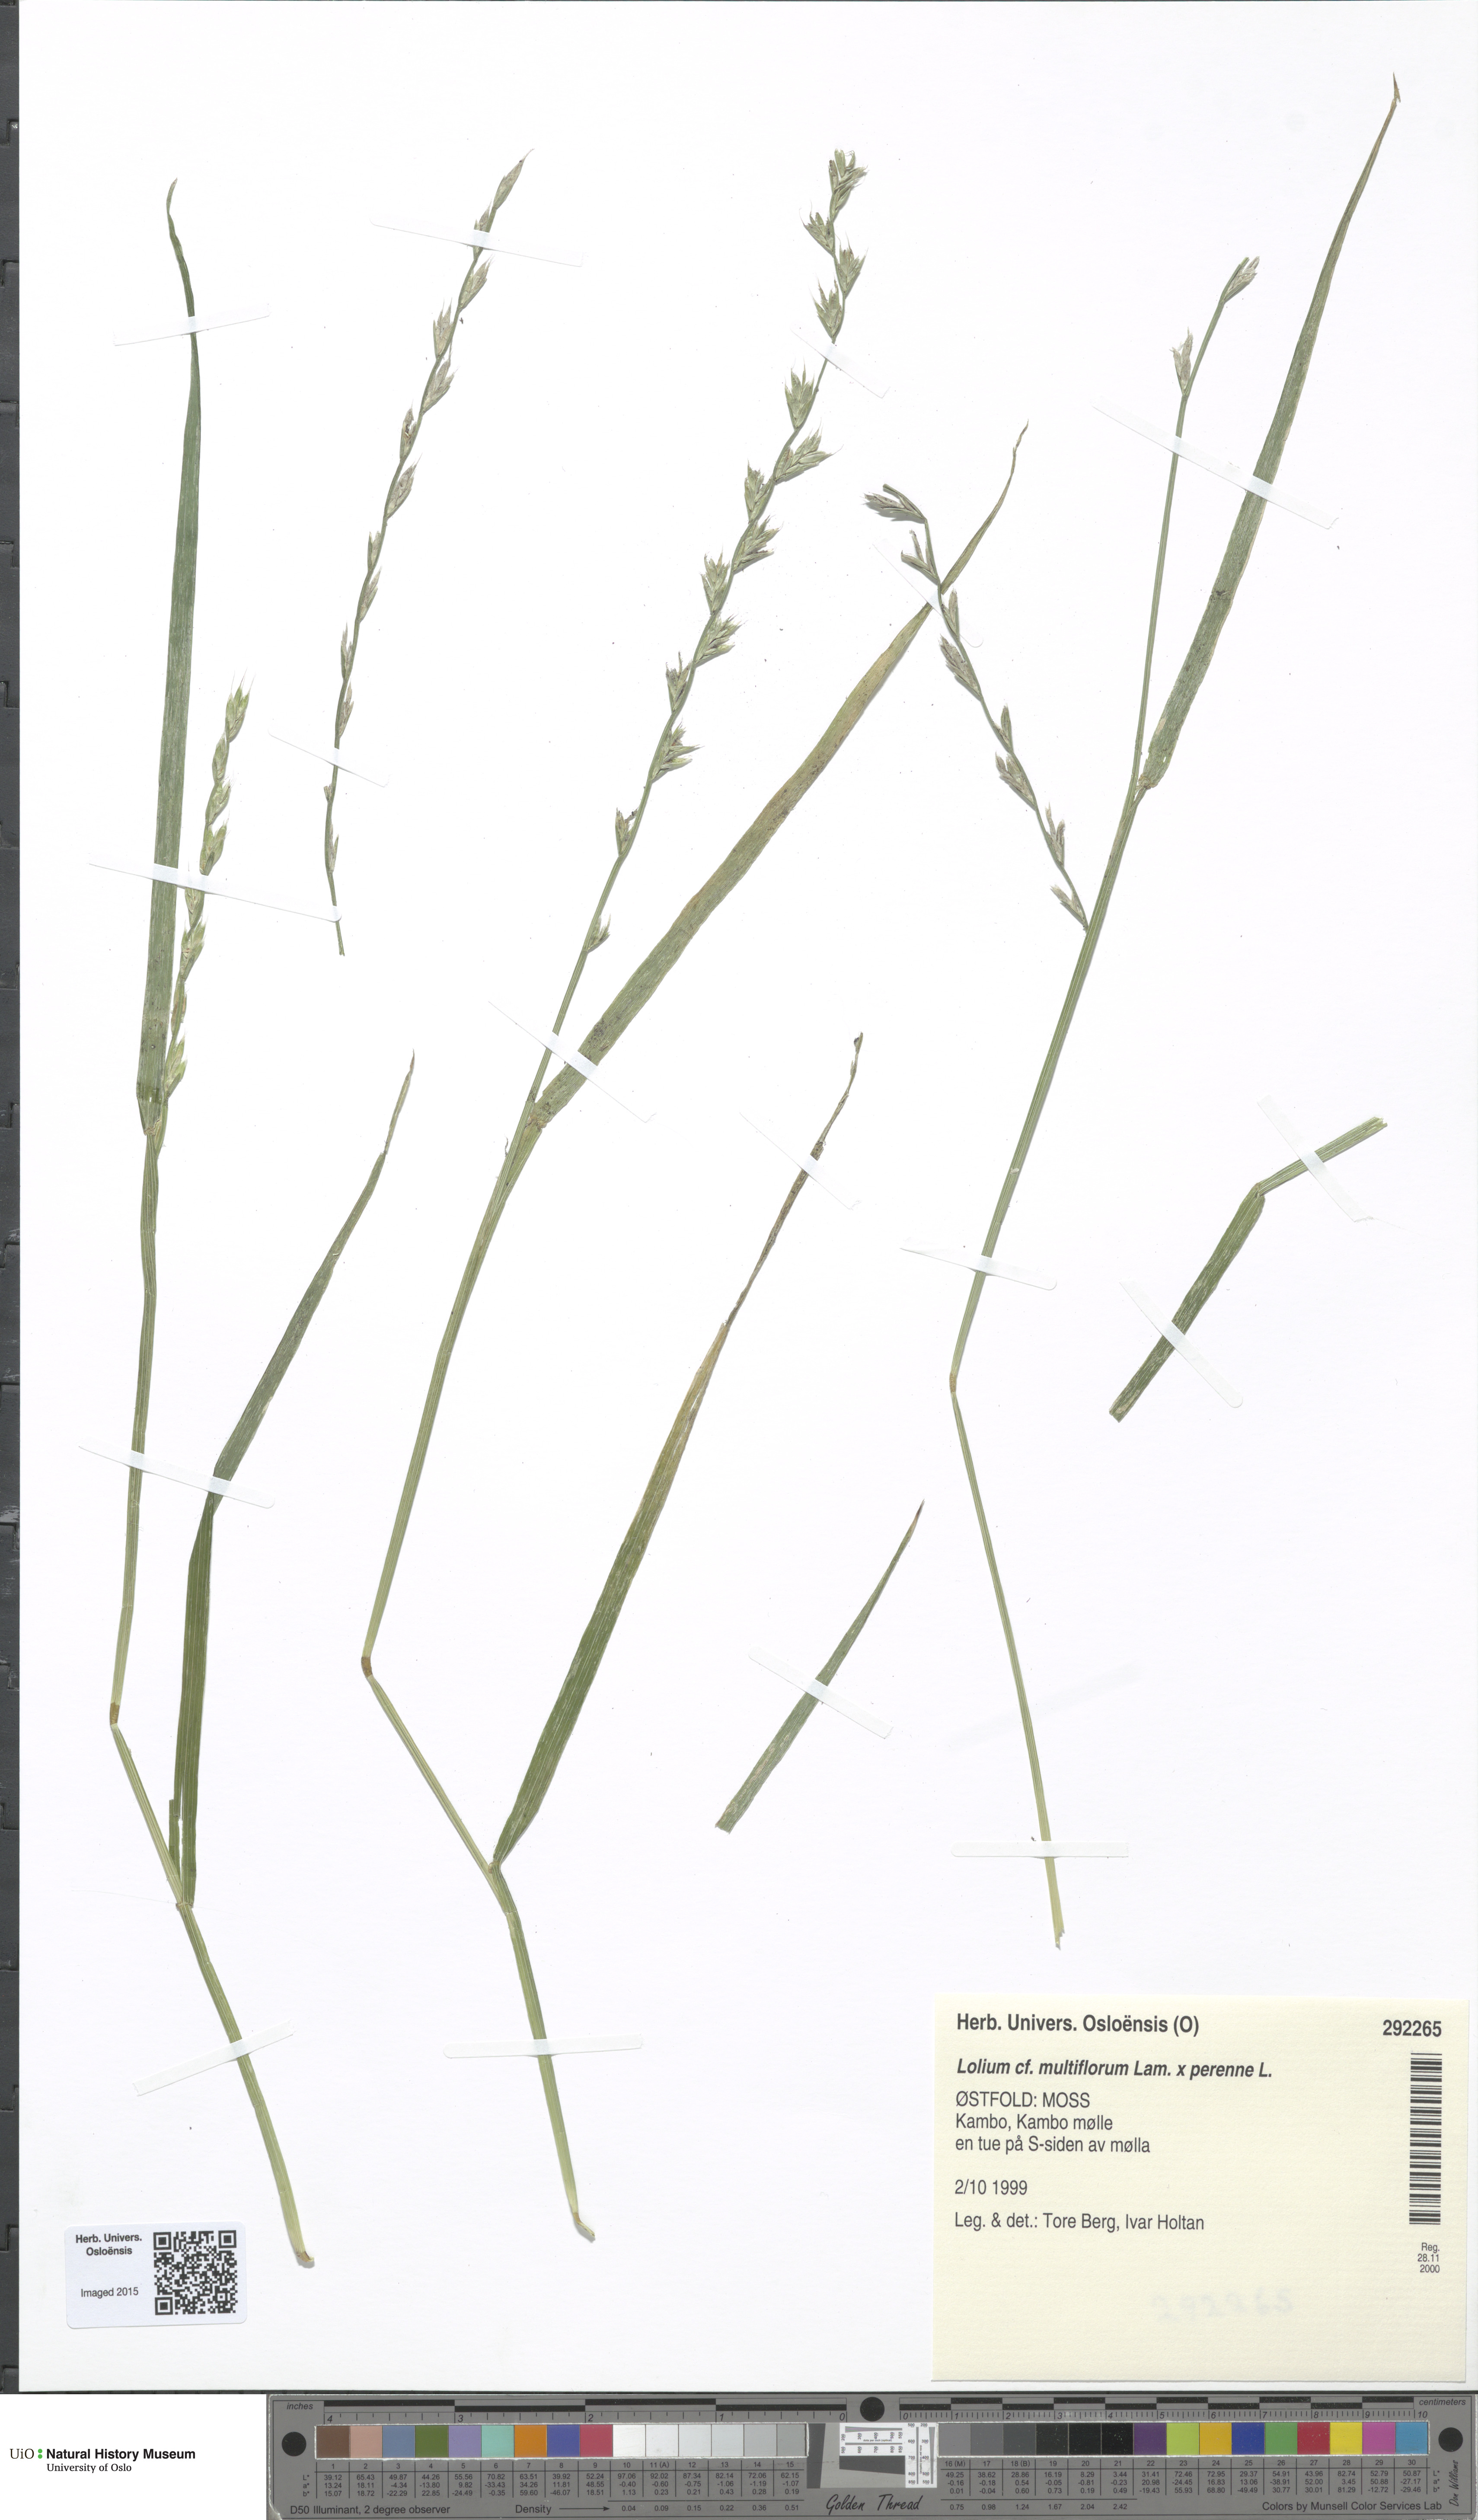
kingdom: Plantae
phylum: Tracheophyta
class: Liliopsida
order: Poales
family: Poaceae
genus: Lolium
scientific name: Lolium
